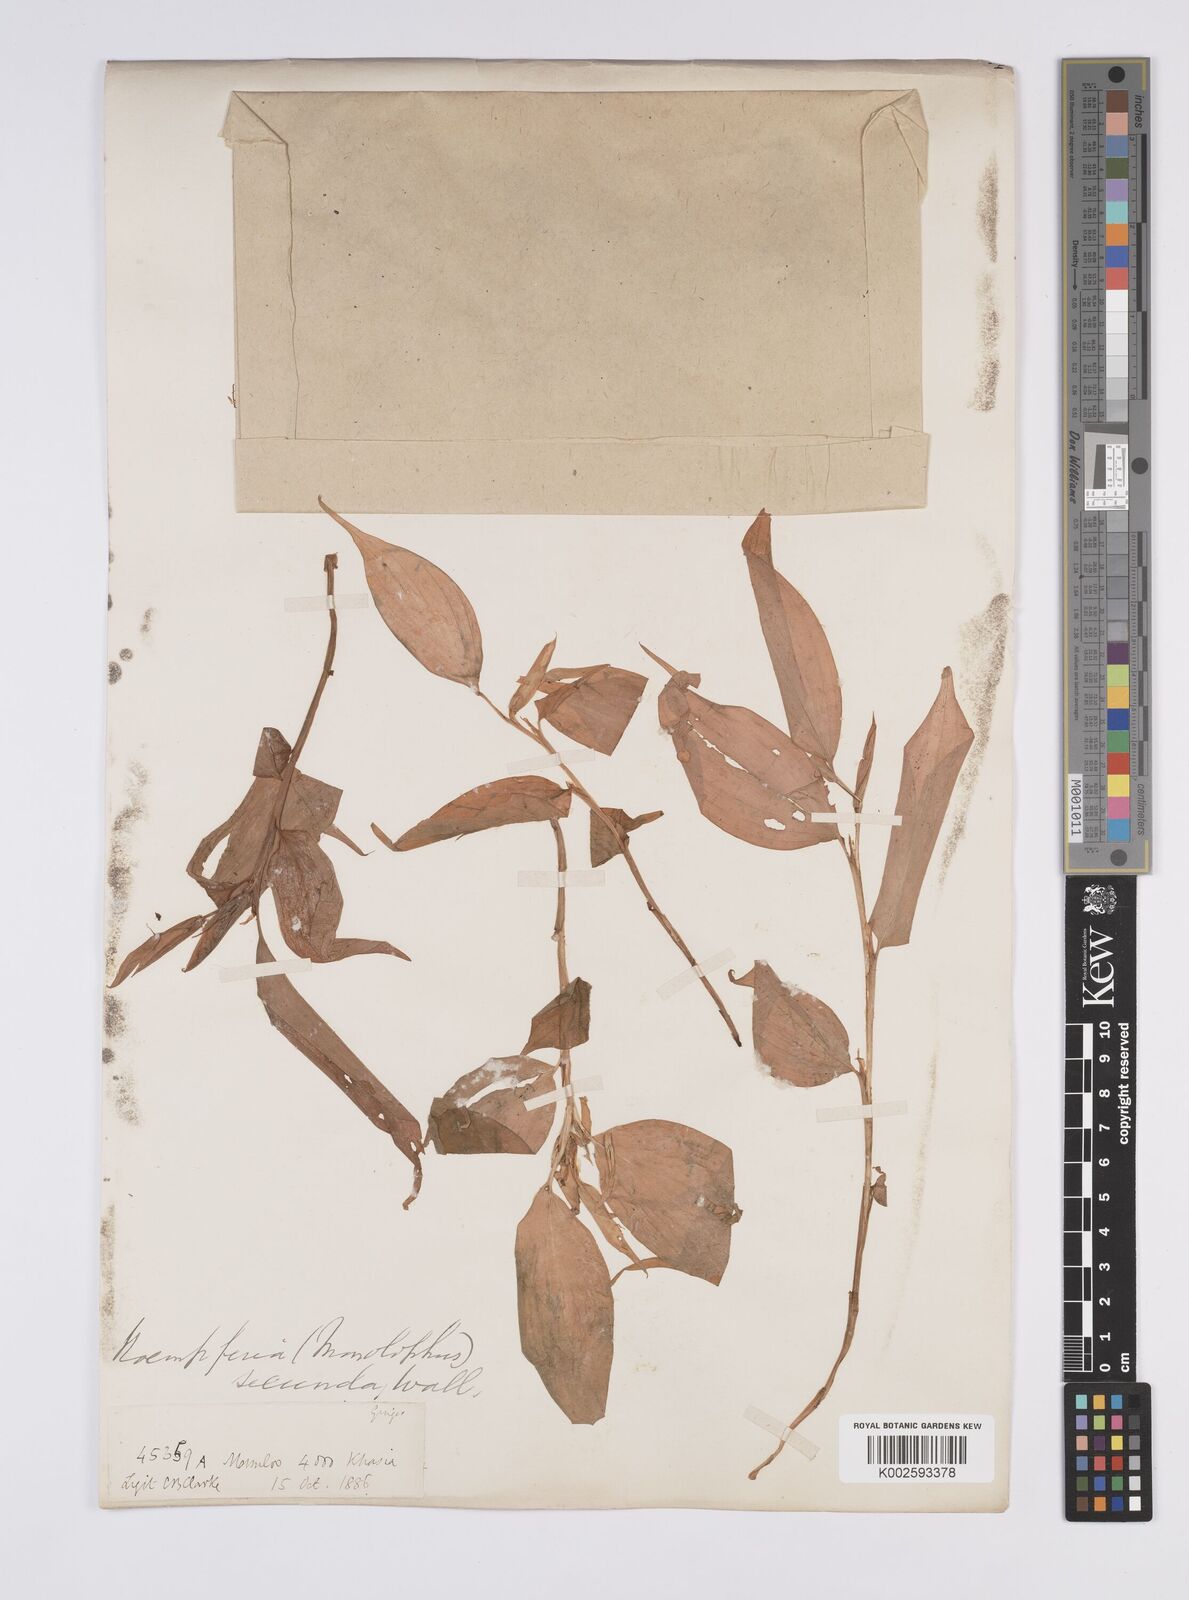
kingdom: Plantae
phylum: Tracheophyta
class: Liliopsida
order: Zingiberales
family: Zingiberaceae
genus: Caulokaempferia
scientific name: Caulokaempferia secunda
